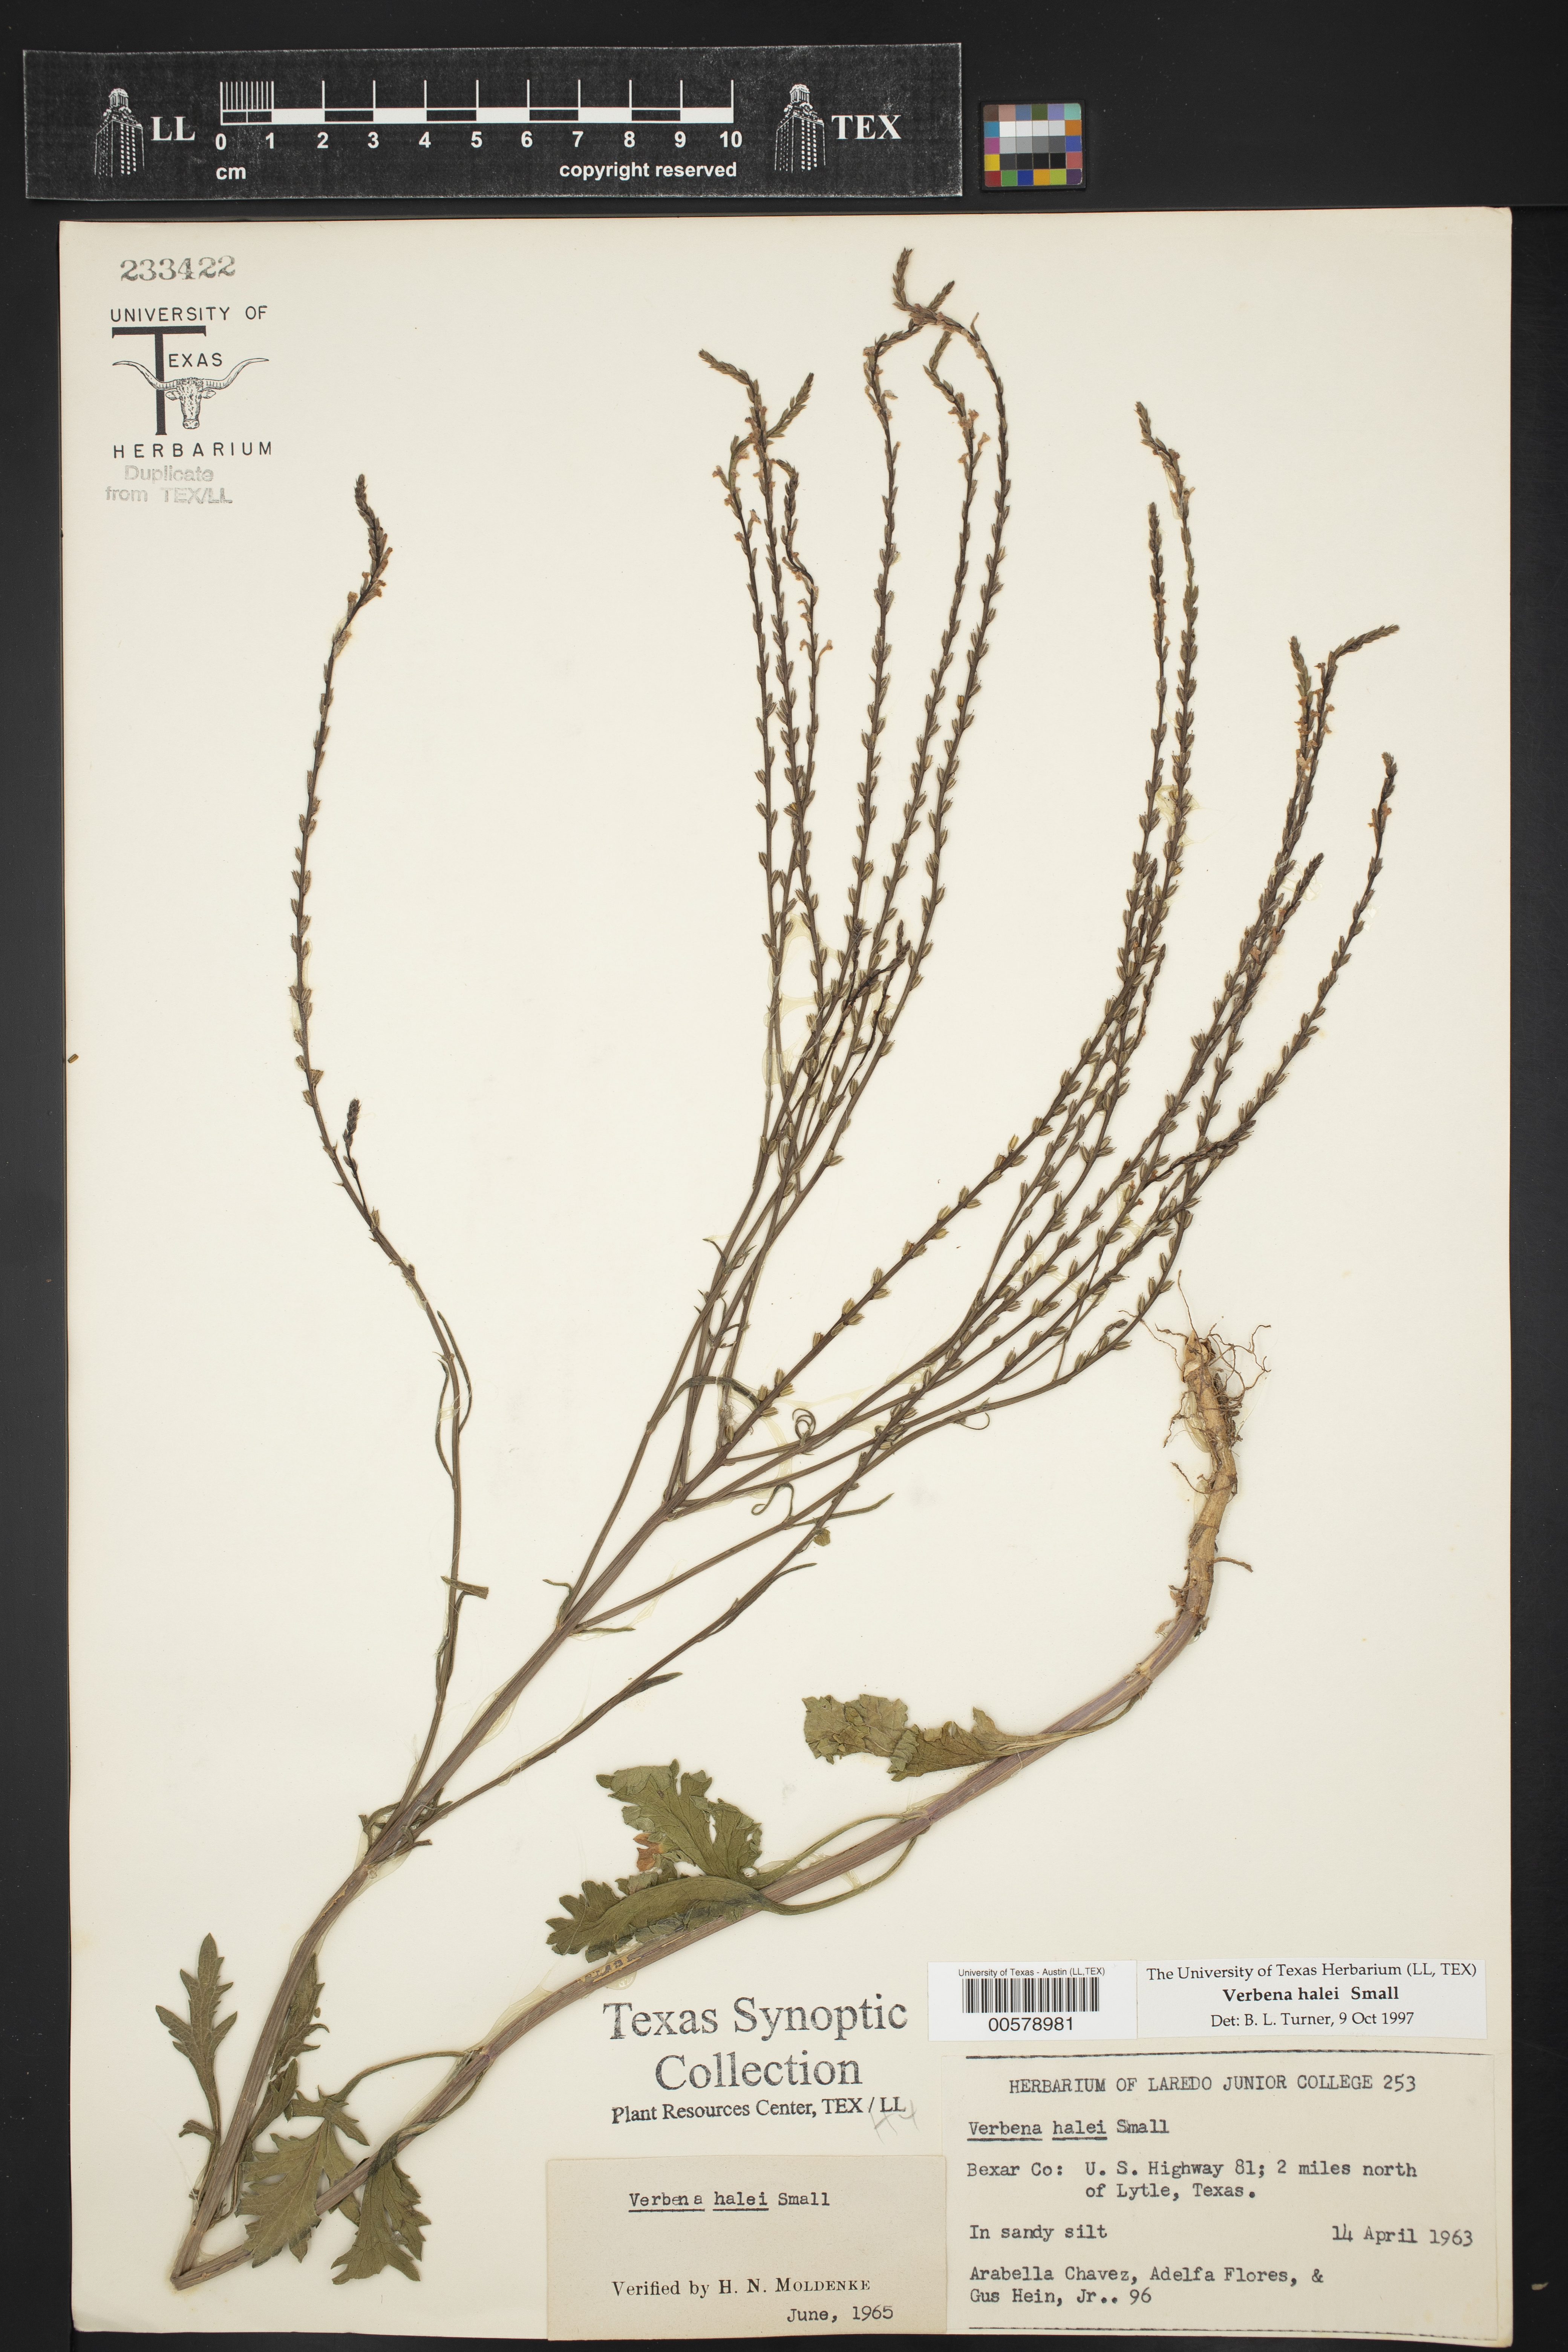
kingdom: Plantae
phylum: Tracheophyta
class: Magnoliopsida
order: Lamiales
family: Verbenaceae
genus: Verbena
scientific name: Verbena halei
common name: Texas vervain
